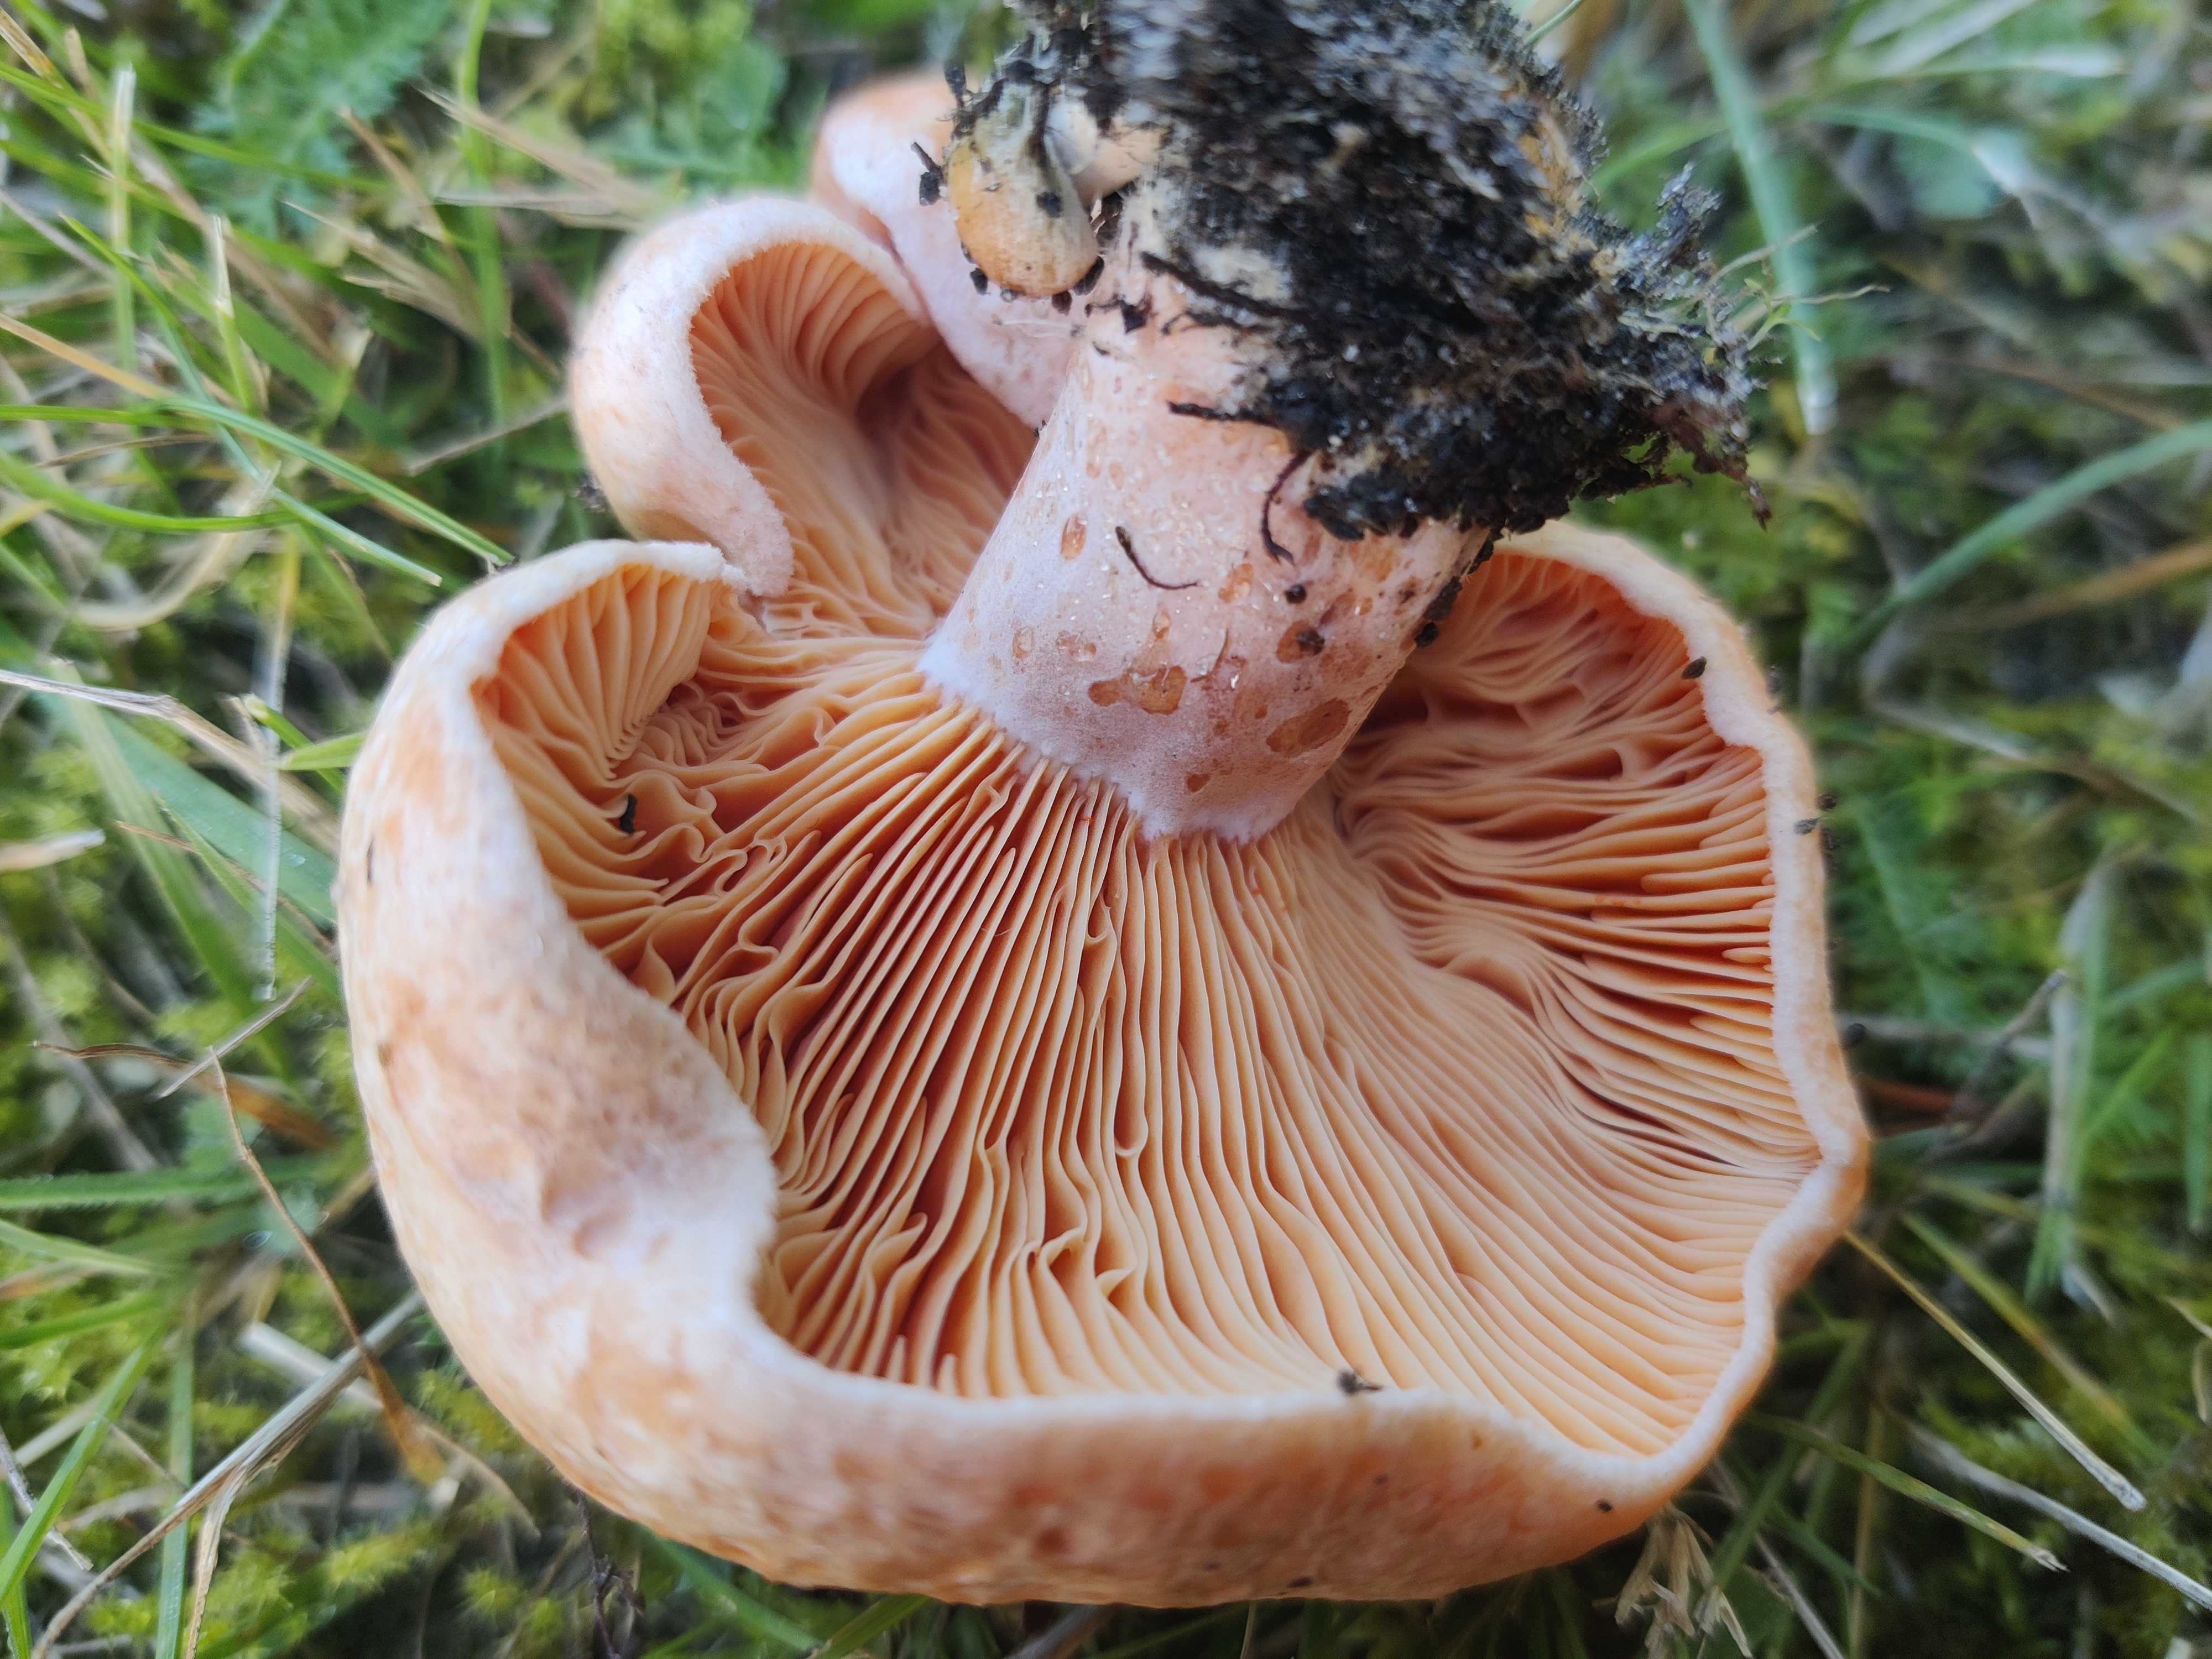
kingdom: Fungi
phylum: Basidiomycota
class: Agaricomycetes
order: Russulales
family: Russulaceae
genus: Lactarius
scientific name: Lactarius deliciosus
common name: velsmagende mælkehat
